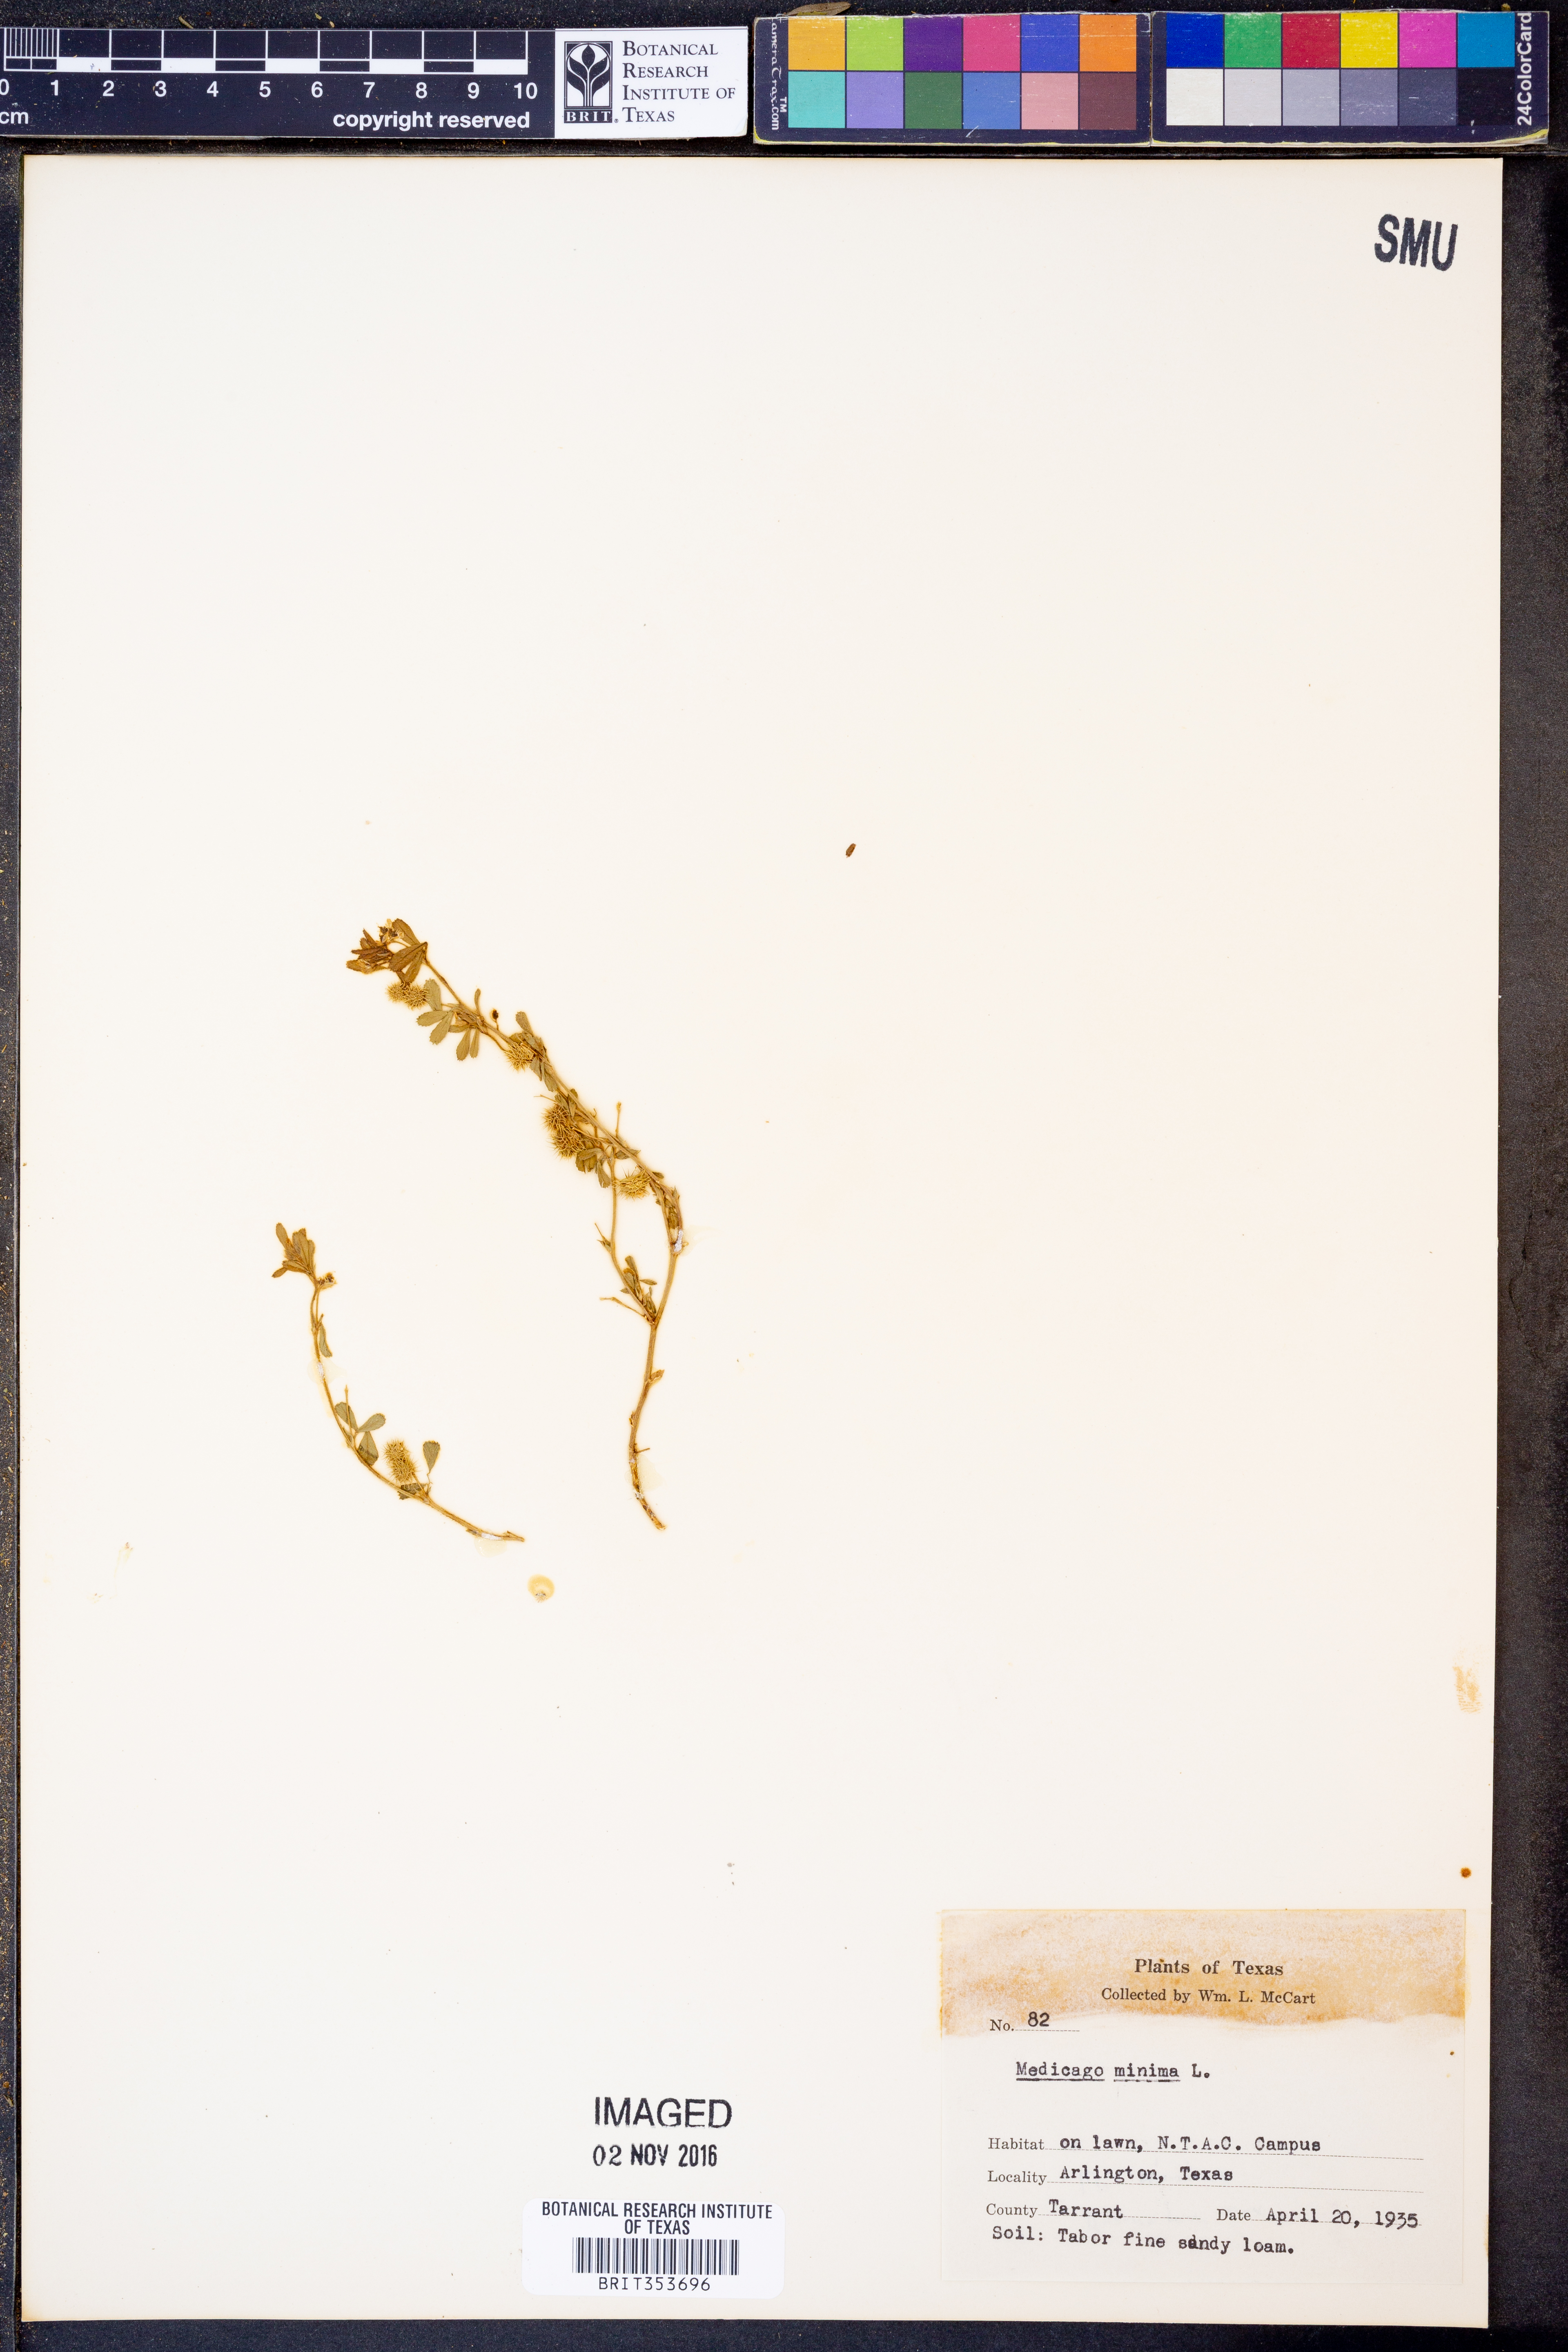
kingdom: Plantae
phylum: Tracheophyta
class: Magnoliopsida
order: Fabales
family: Fabaceae
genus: Medicago
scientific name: Medicago minima
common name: Little bur-clover
